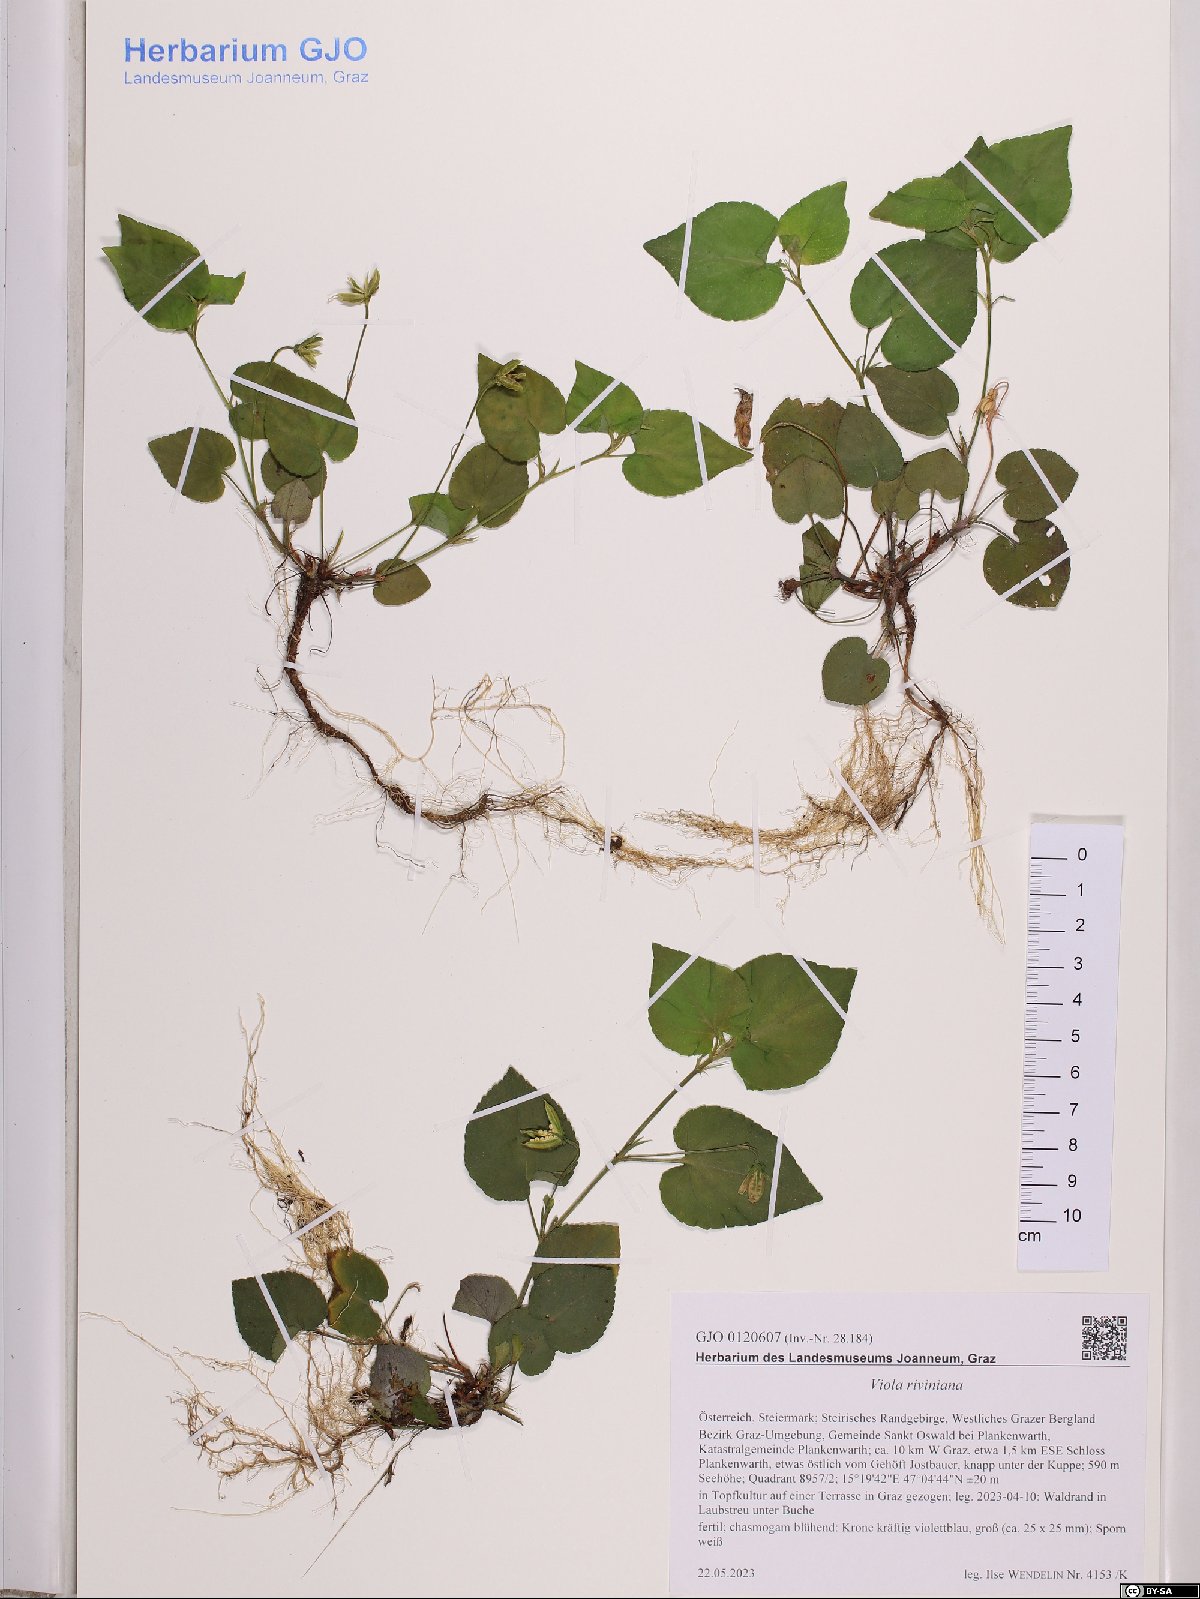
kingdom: Plantae
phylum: Tracheophyta
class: Magnoliopsida
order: Malpighiales
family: Violaceae
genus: Viola
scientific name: Viola riviniana
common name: Common dog-violet
